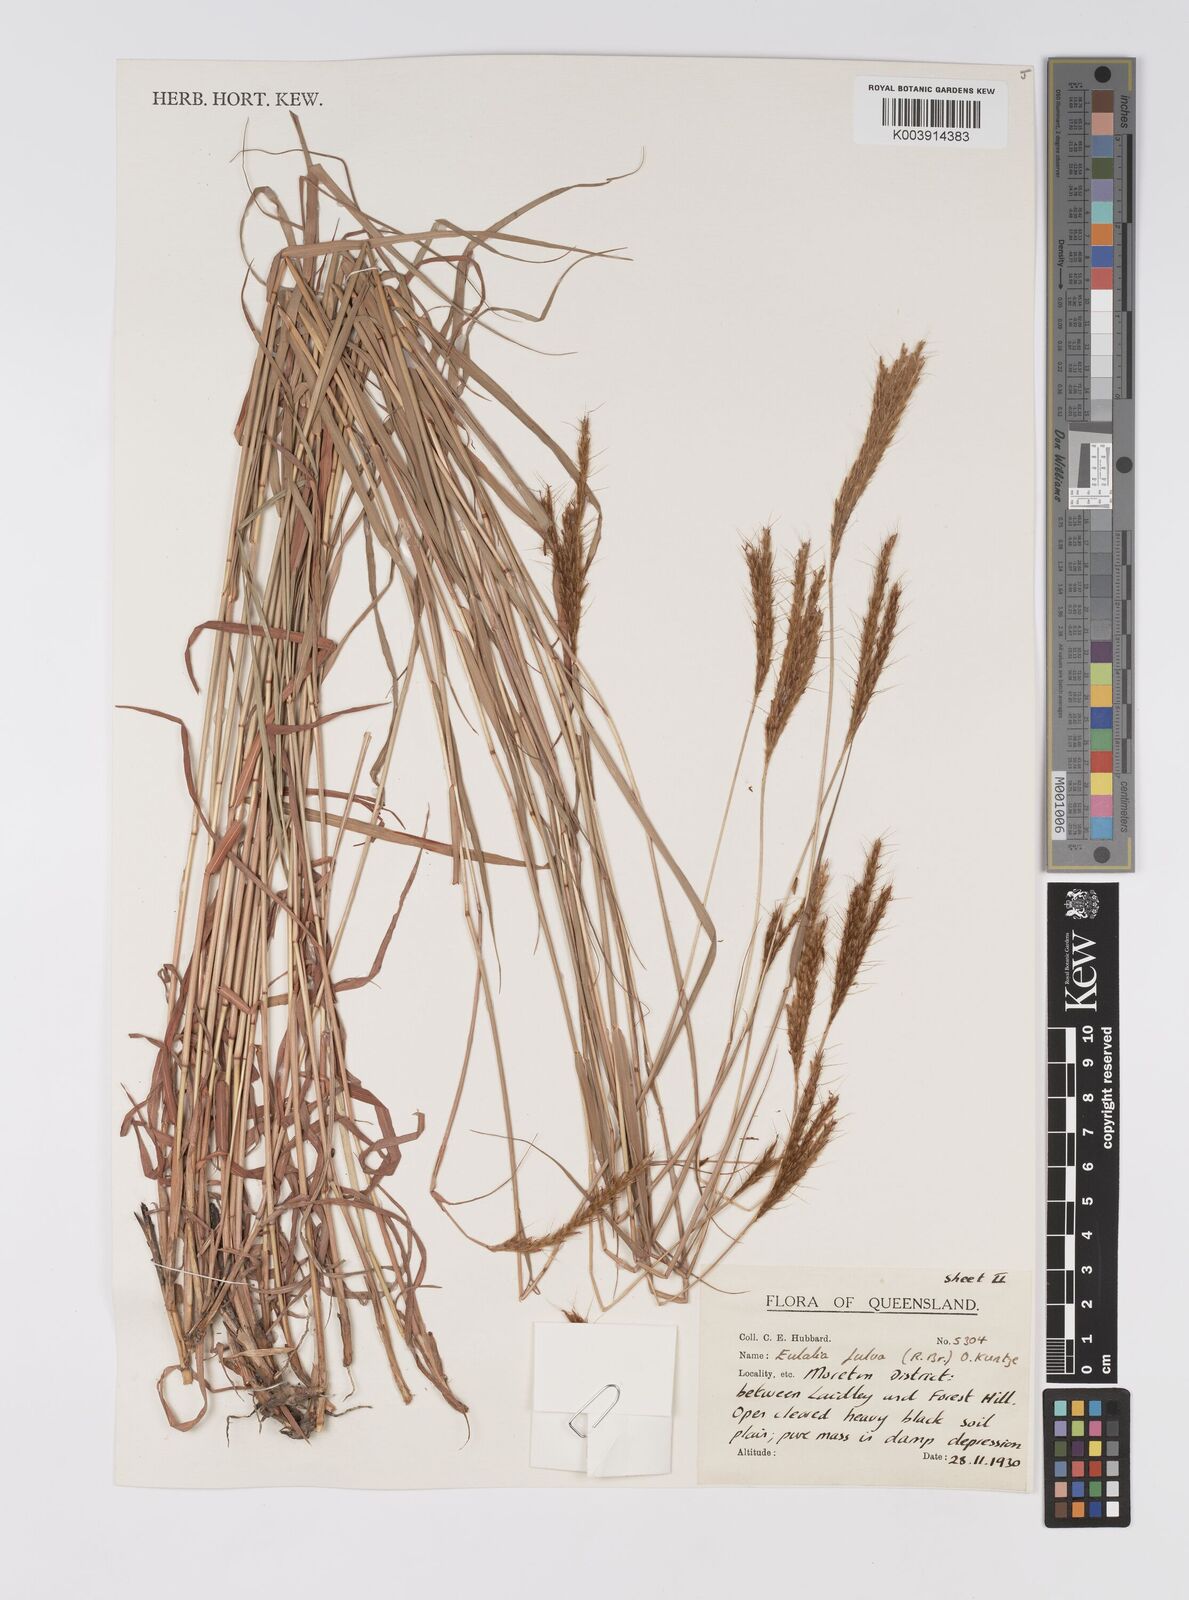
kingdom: Plantae
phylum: Tracheophyta
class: Liliopsida
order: Poales
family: Poaceae
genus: Eulalia
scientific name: Eulalia aurea
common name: Silky browntop
